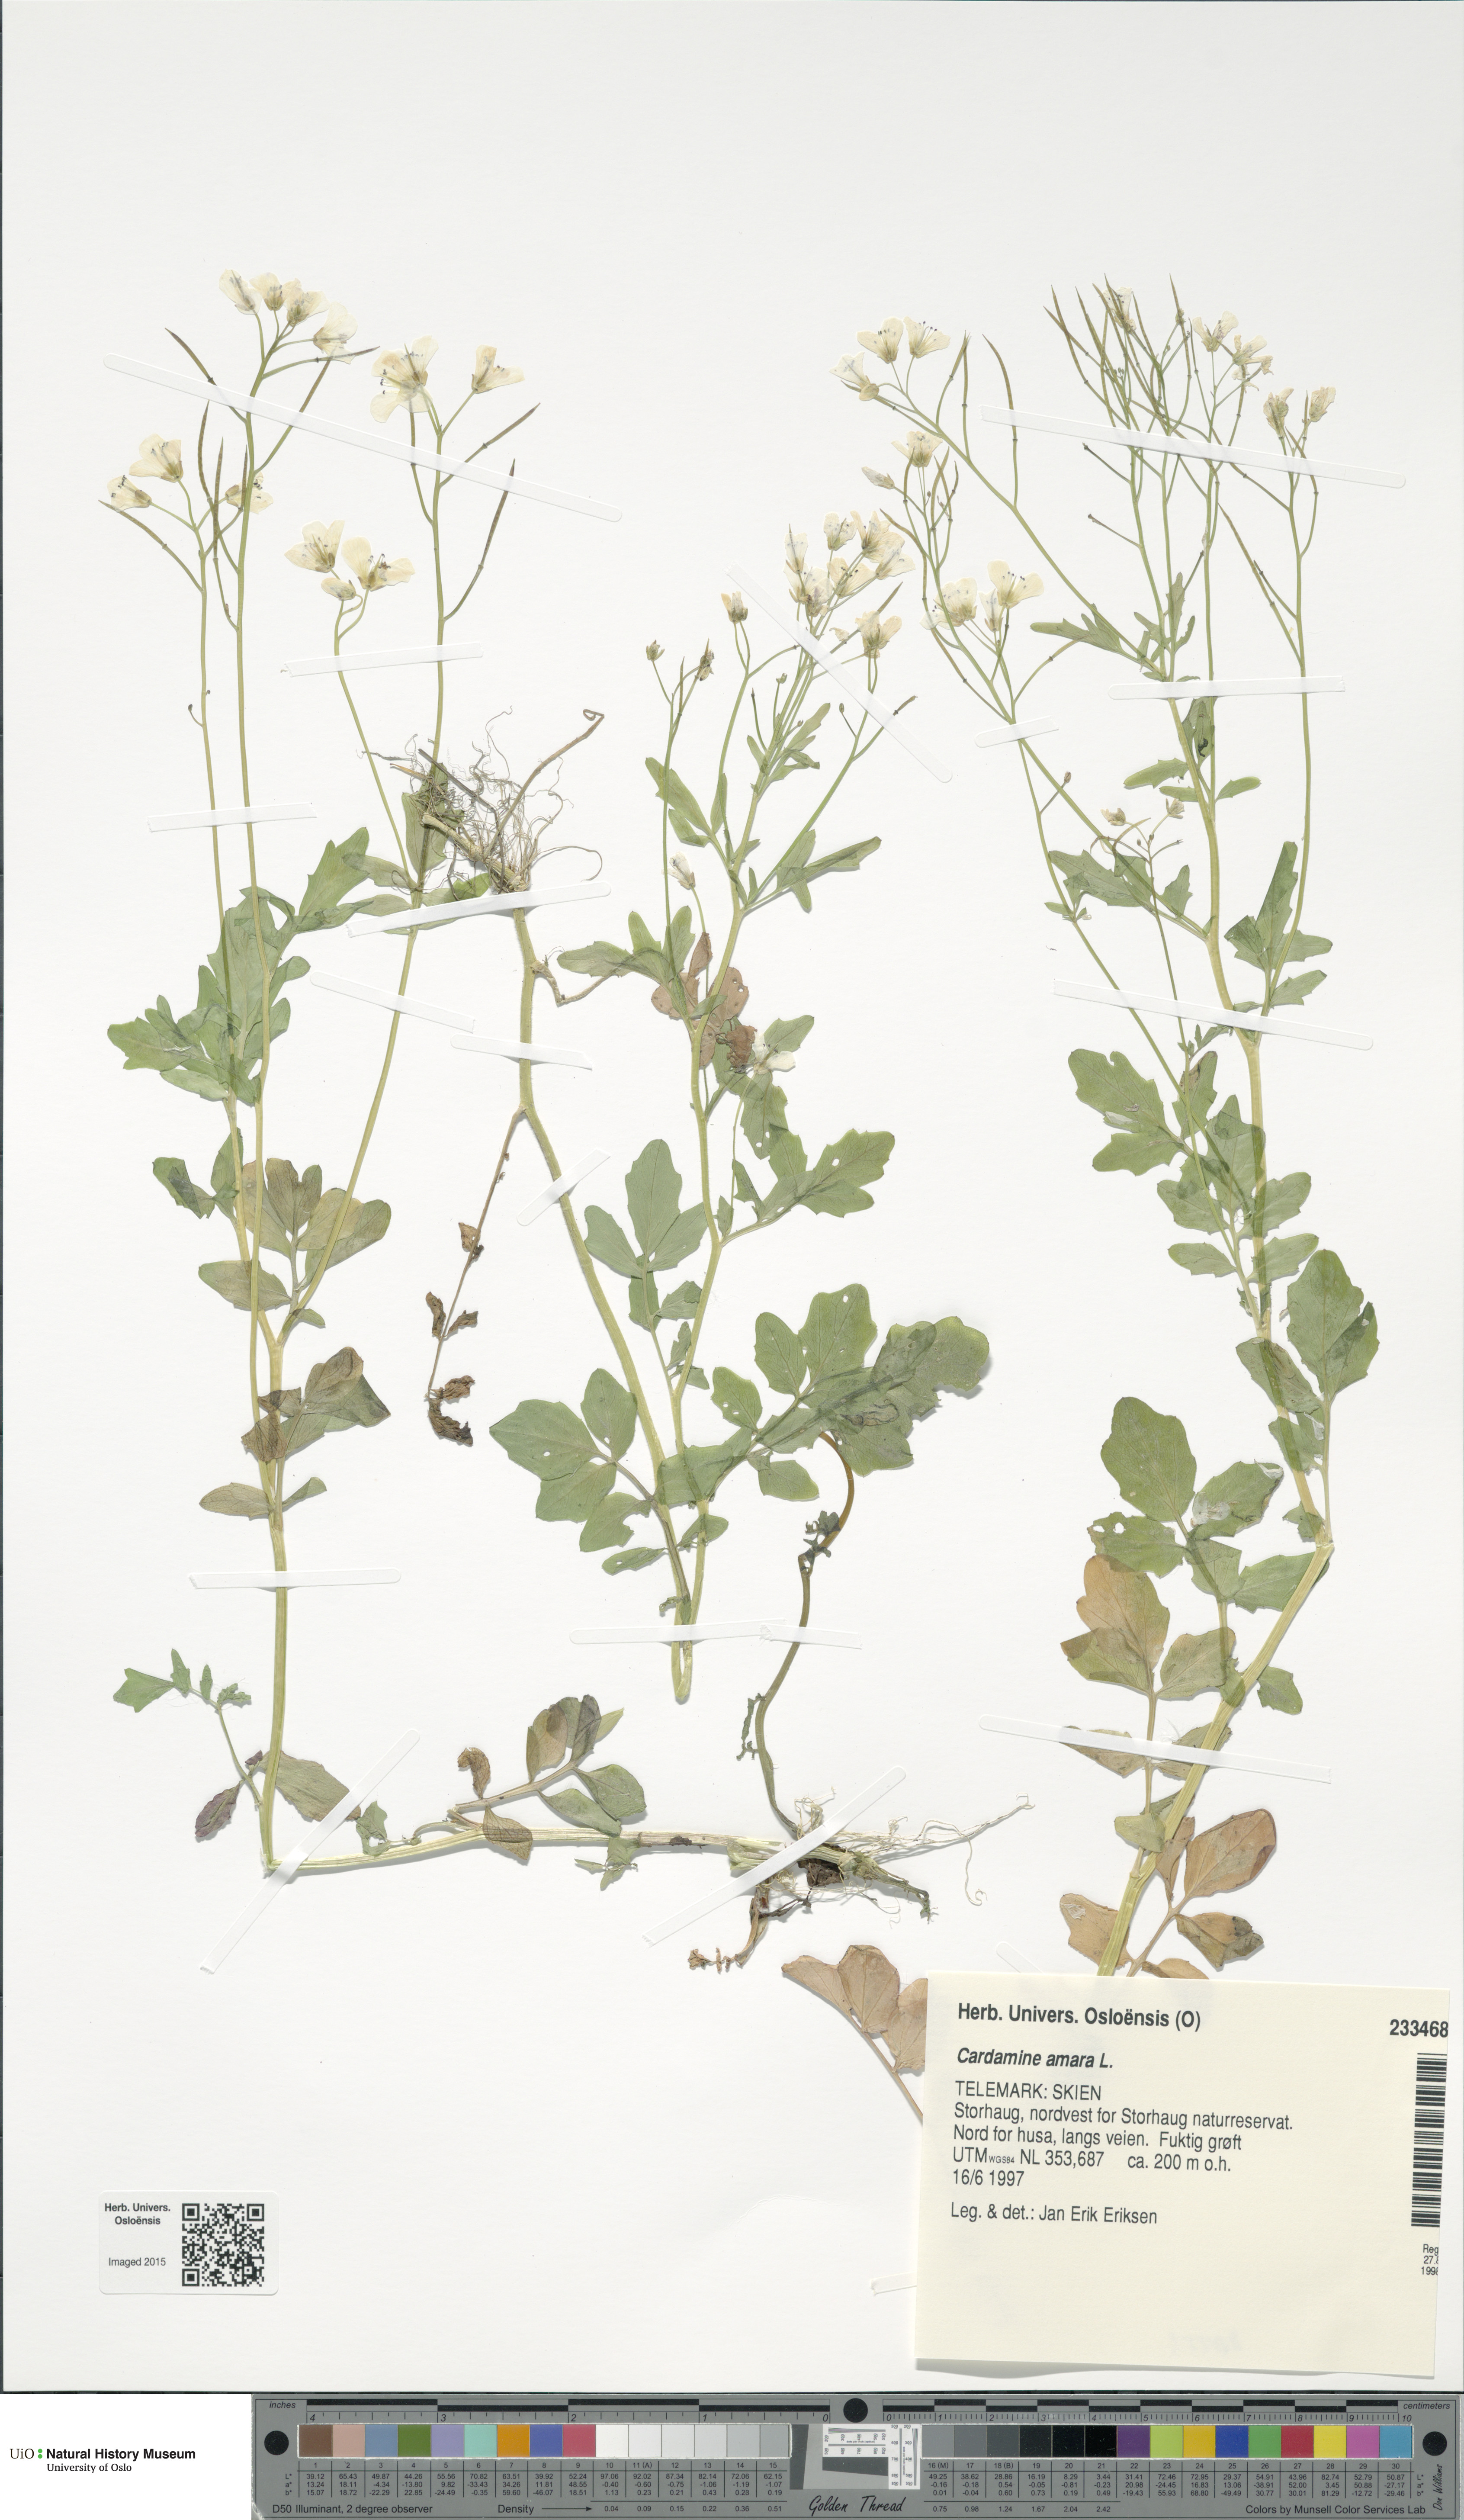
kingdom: Plantae
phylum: Tracheophyta
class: Magnoliopsida
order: Brassicales
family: Brassicaceae
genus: Cardamine
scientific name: Cardamine amara
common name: Large bitter-cress
